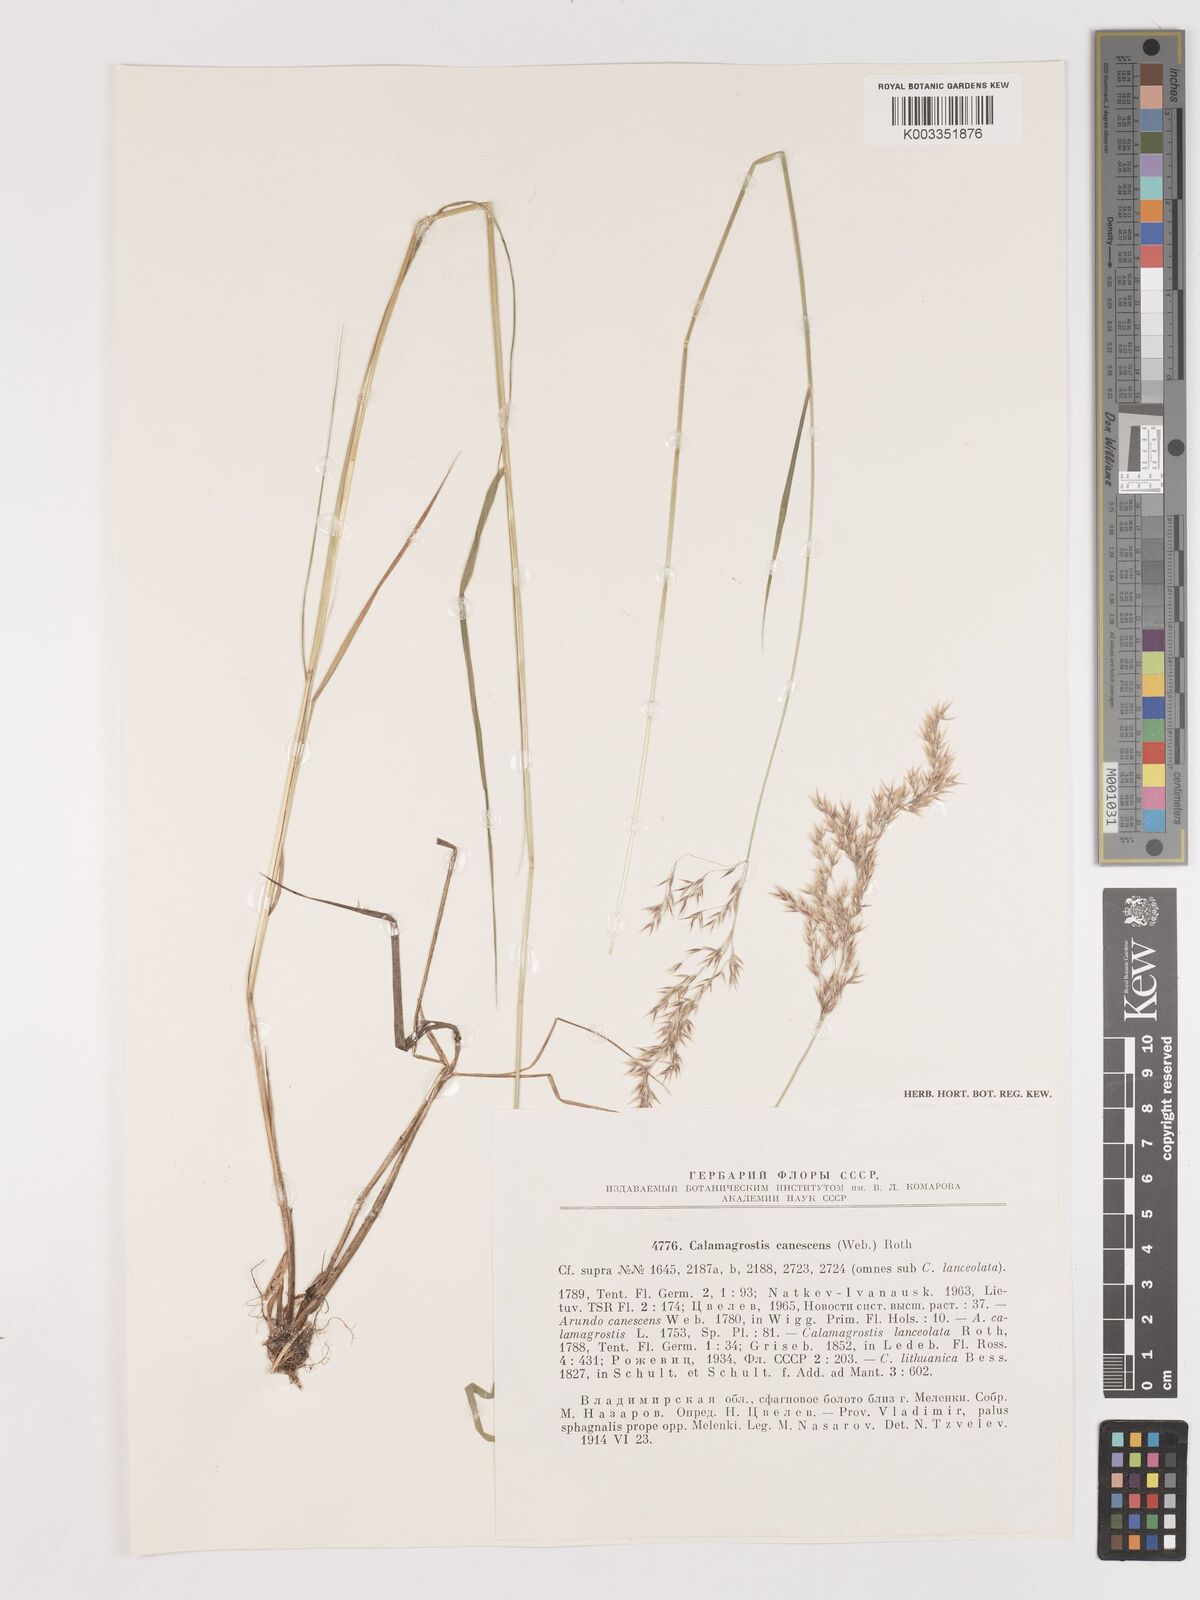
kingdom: Plantae
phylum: Tracheophyta
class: Liliopsida
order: Poales
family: Poaceae
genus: Calamagrostis
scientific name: Calamagrostis canescens
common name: Purple small-reed
